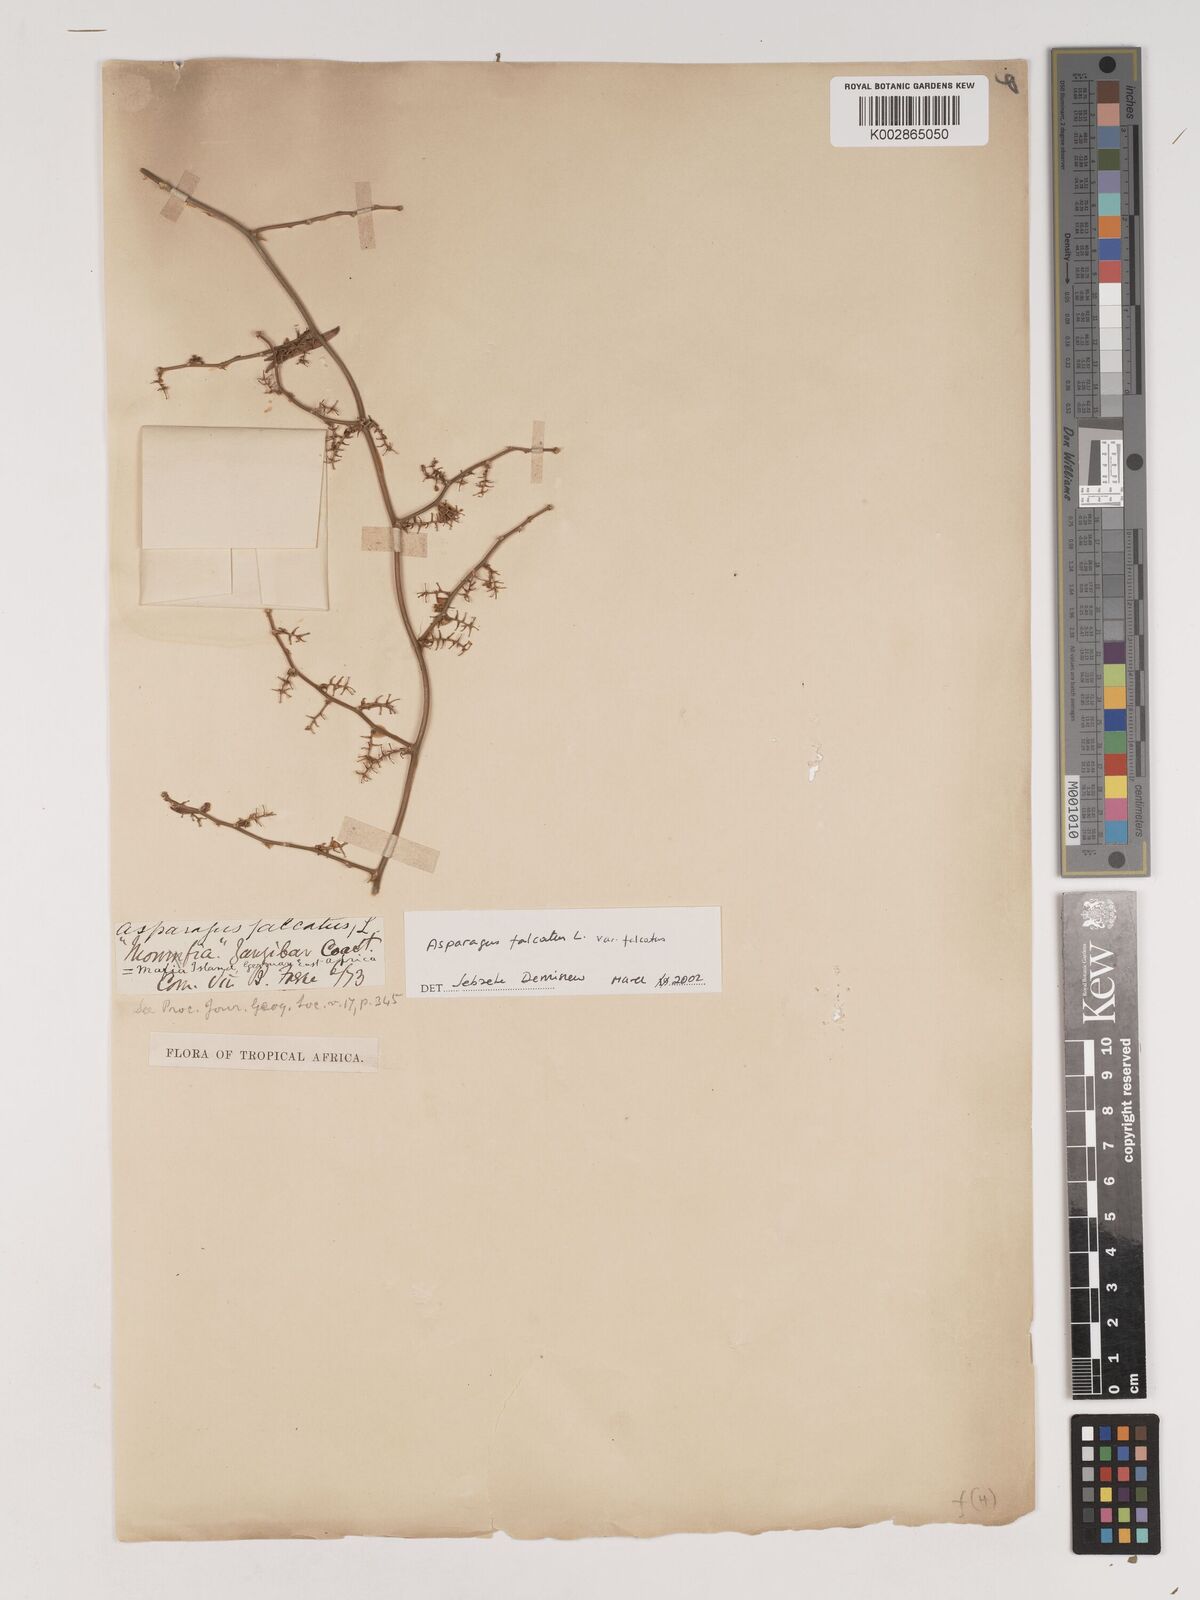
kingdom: Plantae
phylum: Tracheophyta
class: Liliopsida
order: Asparagales
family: Asparagaceae
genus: Asparagus
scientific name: Asparagus falcatus
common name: Asparagus
